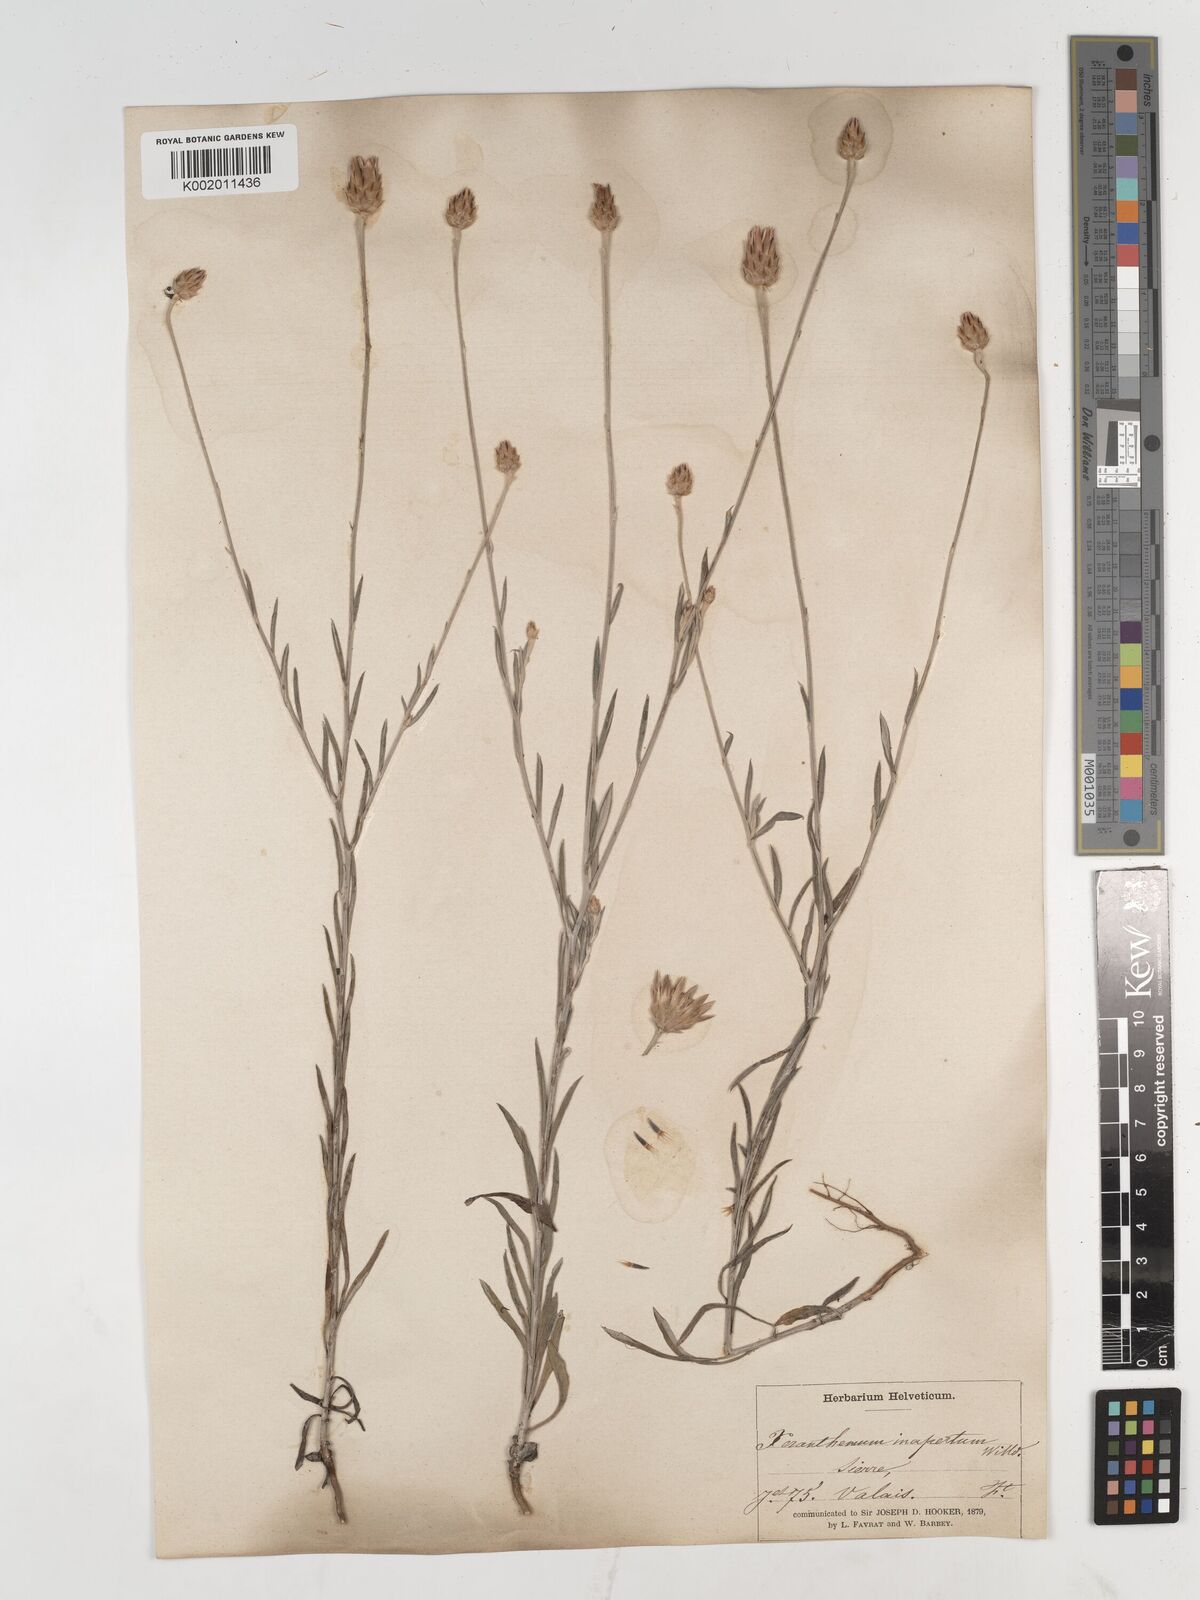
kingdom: Plantae
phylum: Tracheophyta
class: Magnoliopsida
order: Asterales
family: Asteraceae
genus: Xeranthemum
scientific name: Xeranthemum
